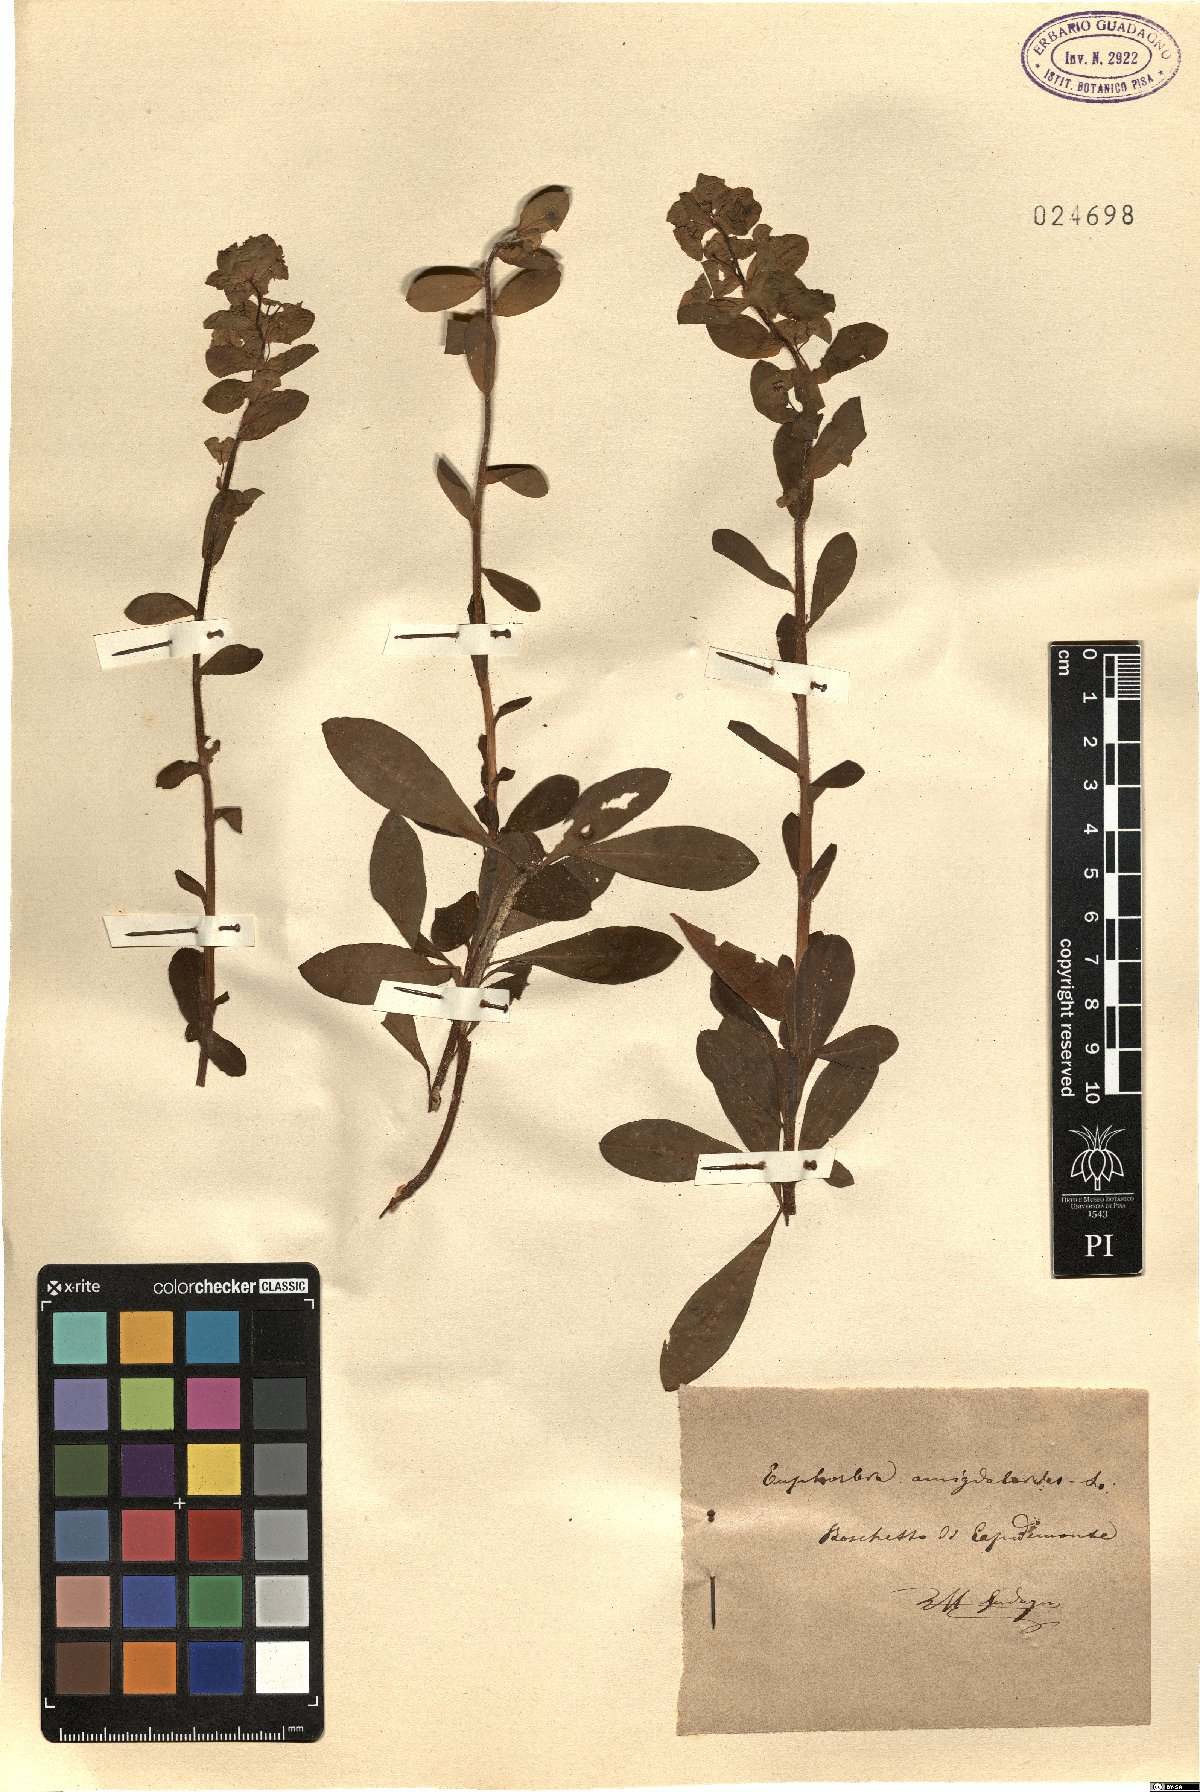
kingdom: Plantae
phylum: Tracheophyta
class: Magnoliopsida
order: Malpighiales
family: Euphorbiaceae
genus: Euphorbia
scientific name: Euphorbia amygdaloides
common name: Wood spurge
